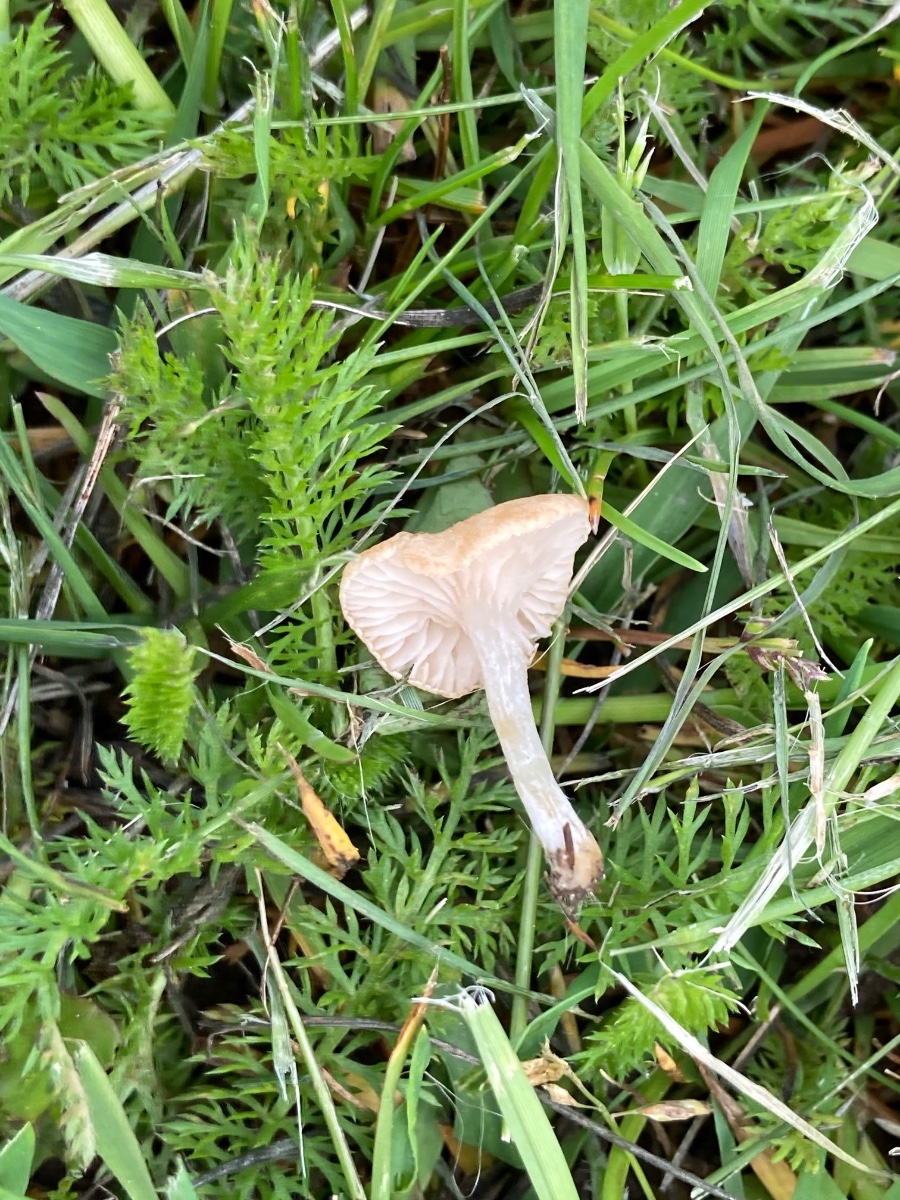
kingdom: Fungi
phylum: Basidiomycota
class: Agaricomycetes
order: Agaricales
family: Entolomataceae
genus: Entoloma
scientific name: Entoloma neglectum
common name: bleg rødblad
